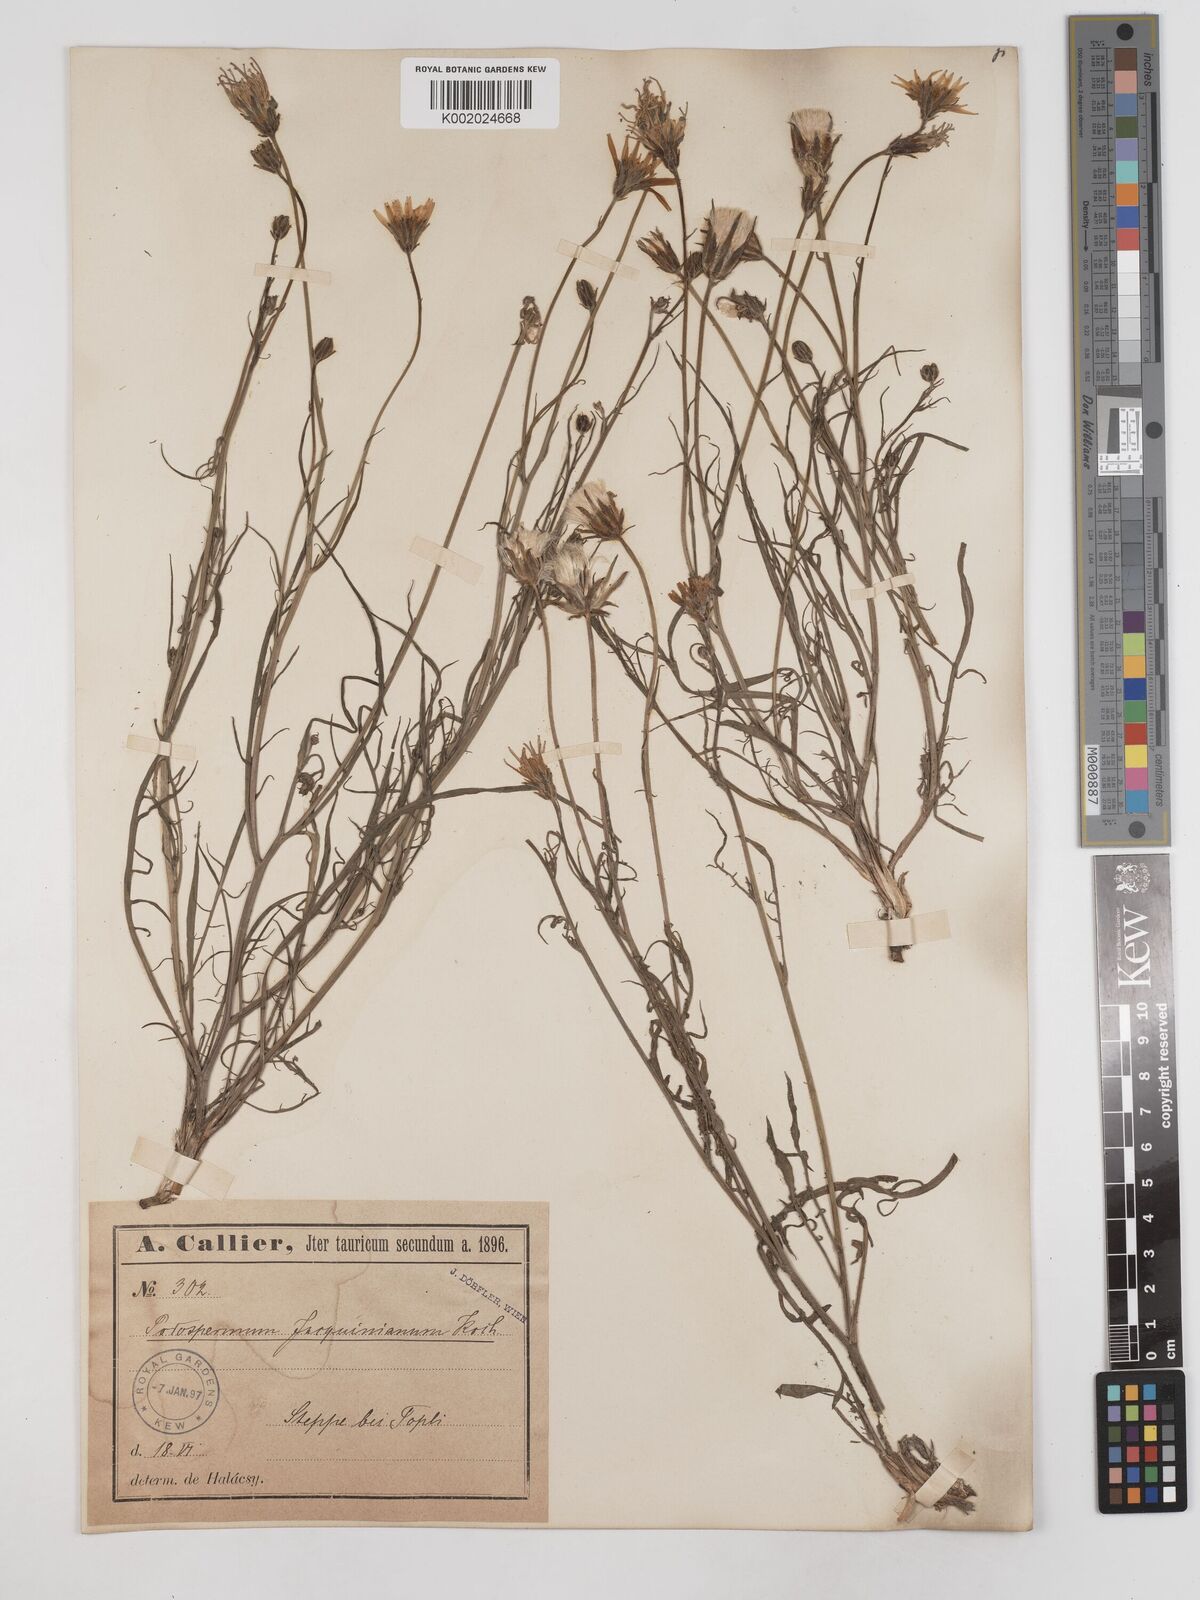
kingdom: Plantae
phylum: Tracheophyta
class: Magnoliopsida
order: Asterales
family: Asteraceae
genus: Scorzonera
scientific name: Scorzonera cana
